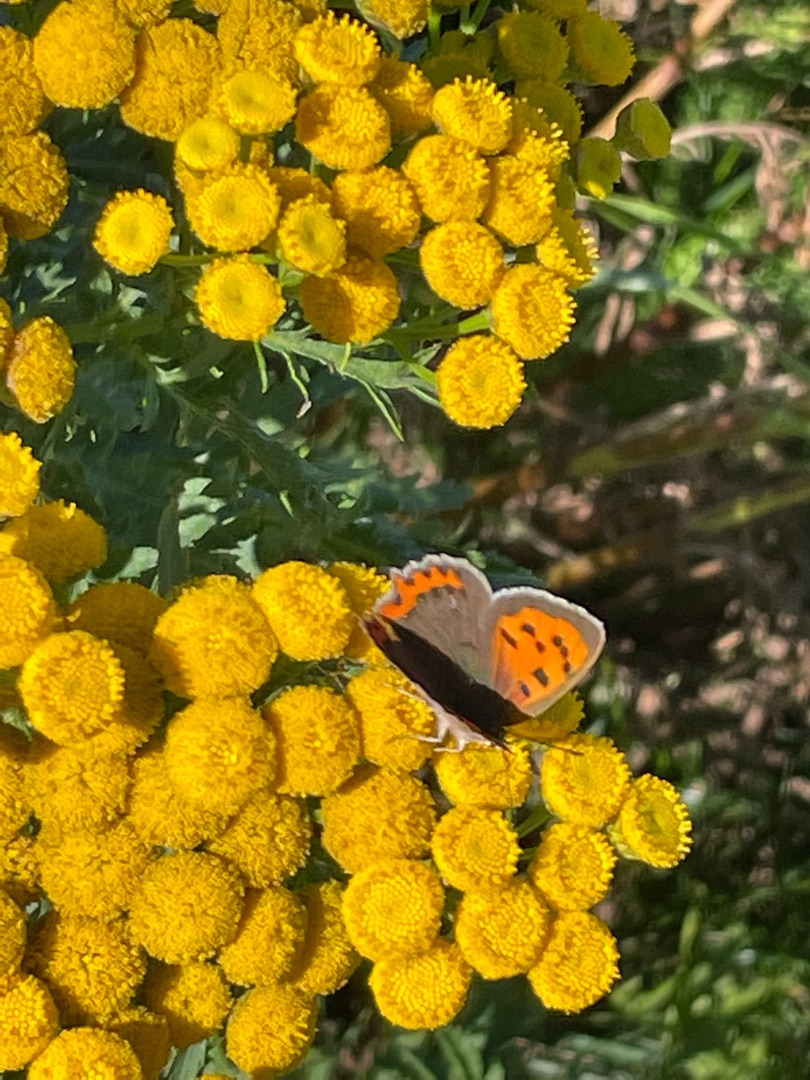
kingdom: Animalia
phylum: Arthropoda
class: Insecta
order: Lepidoptera
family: Lycaenidae
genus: Lycaena
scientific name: Lycaena phlaeas
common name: Lille ildfugl
